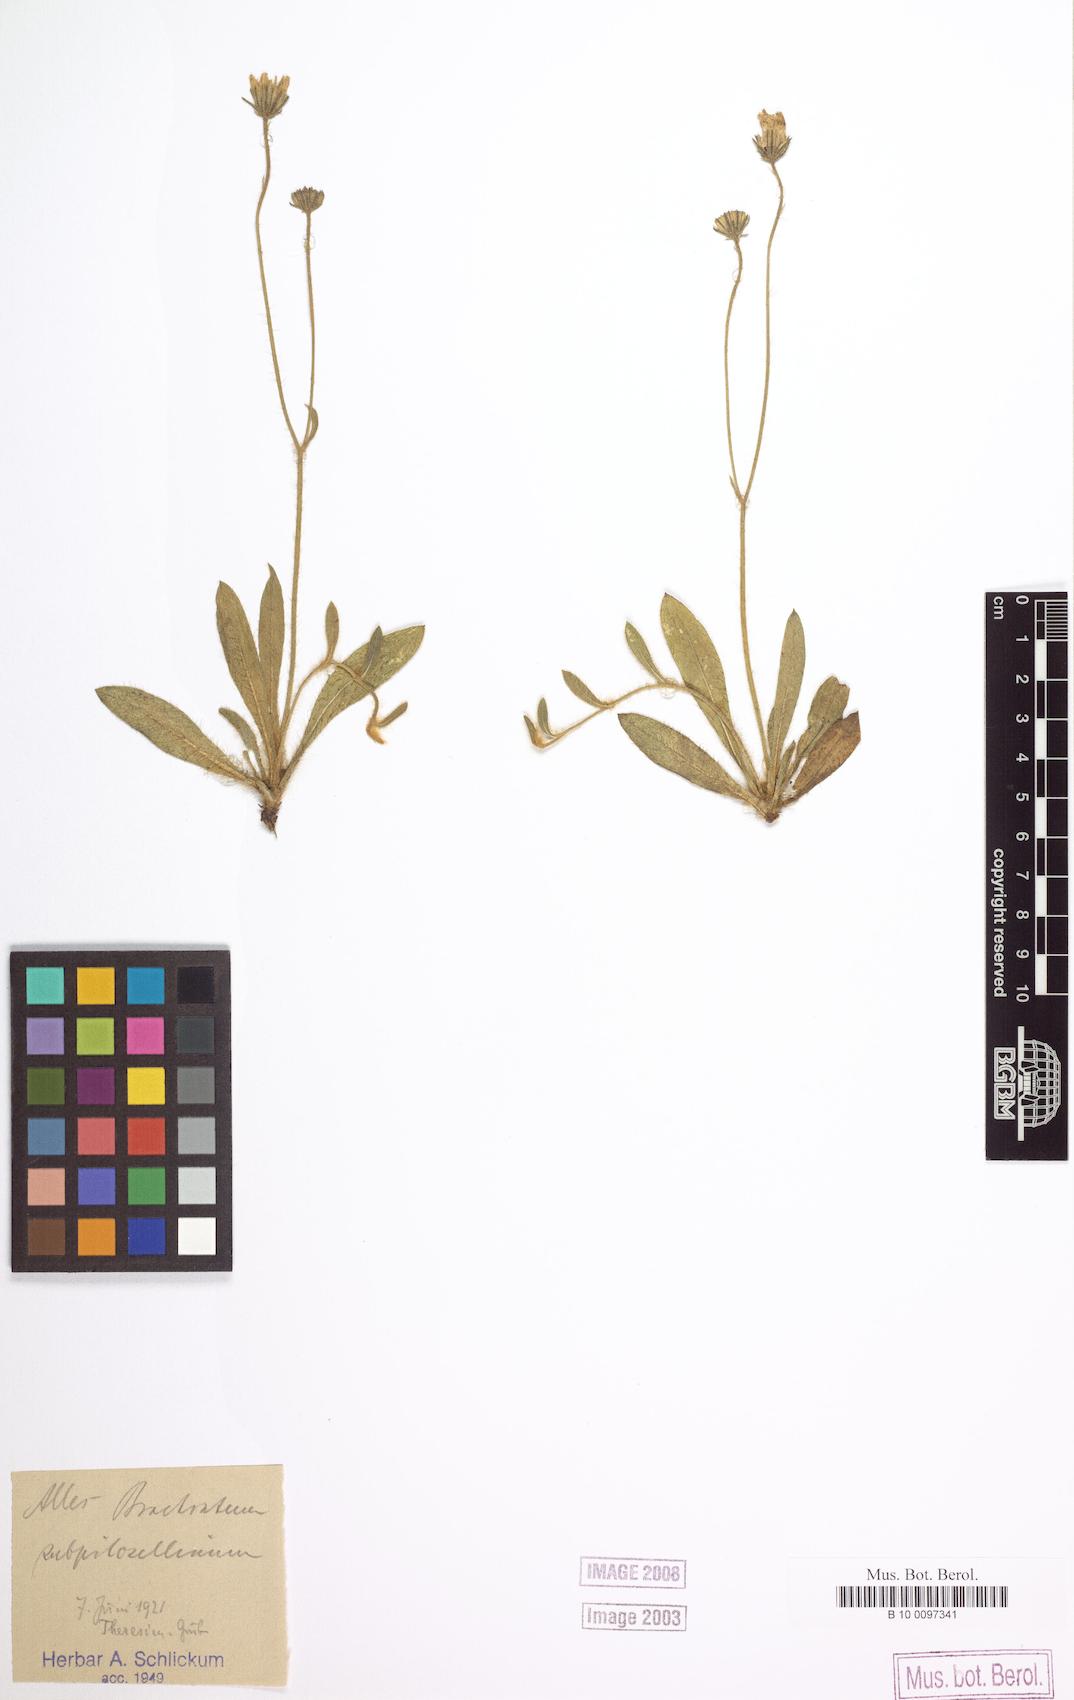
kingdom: Plantae
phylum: Tracheophyta
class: Magnoliopsida
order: Asterales
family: Asteraceae
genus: Pilosella
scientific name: Pilosella acutifolia
